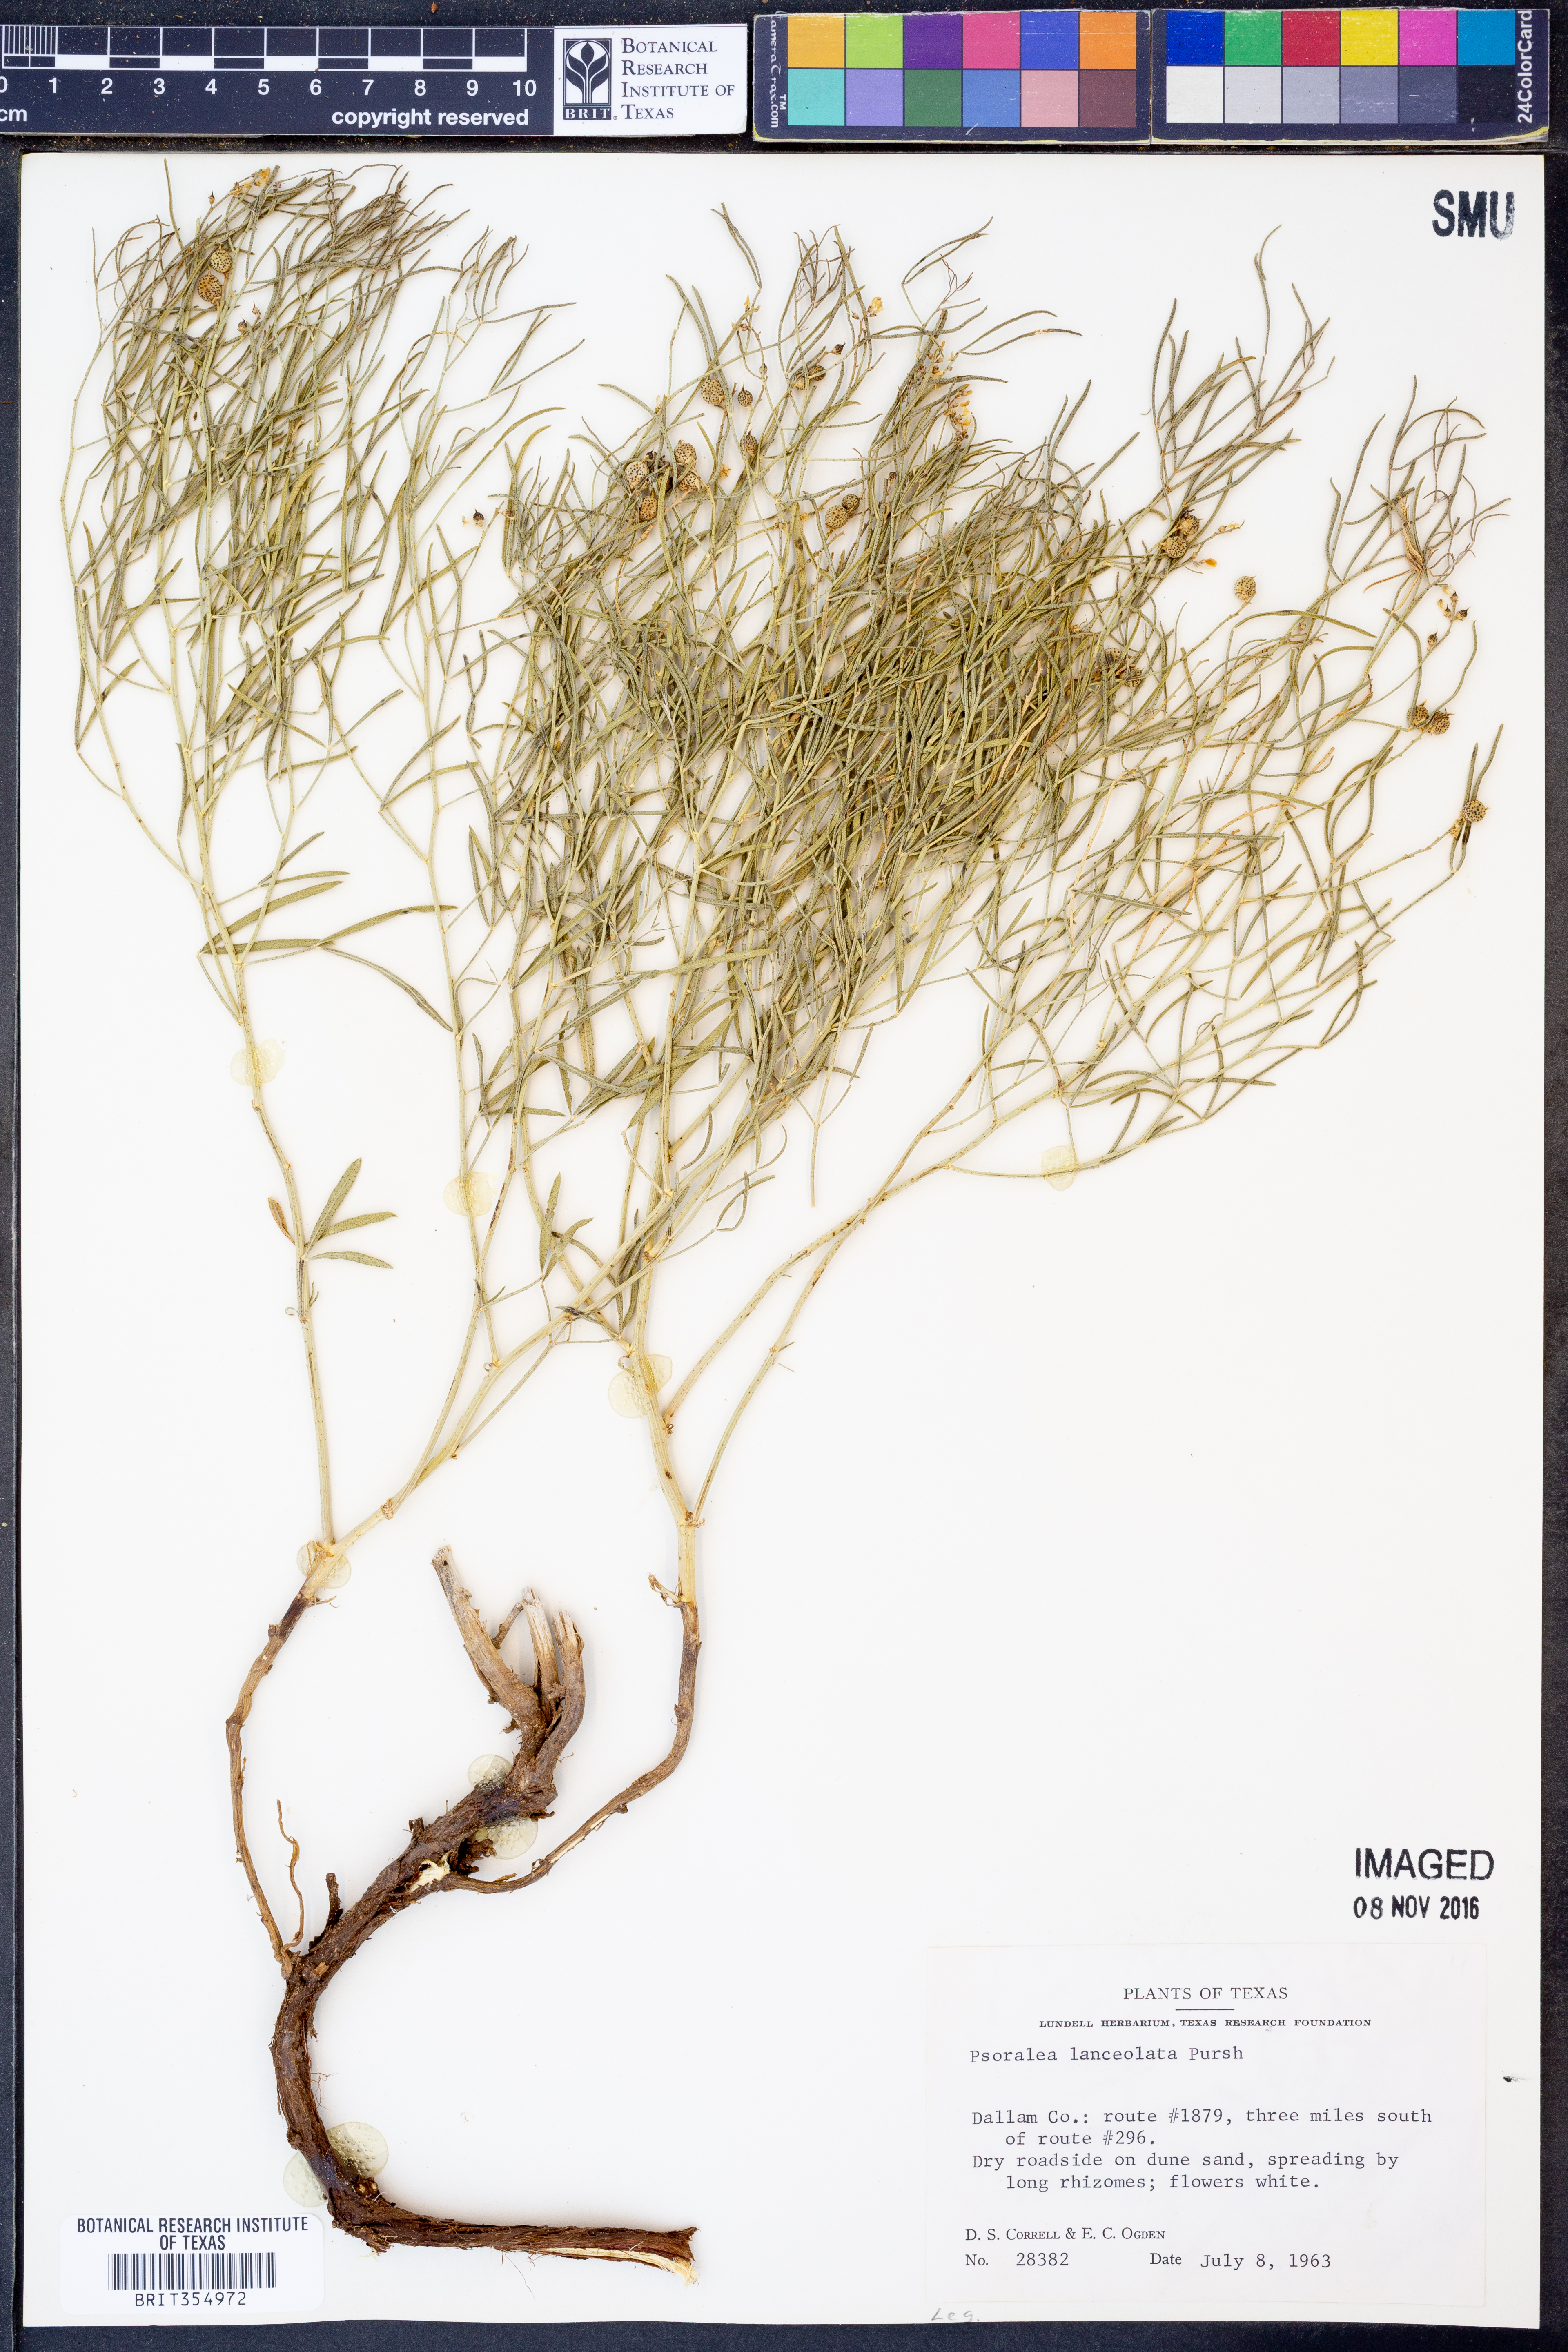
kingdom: Plantae
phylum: Tracheophyta
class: Magnoliopsida
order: Fabales
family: Fabaceae
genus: Ladeania
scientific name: Ladeania lanceolata
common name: Dune scurf-pea
